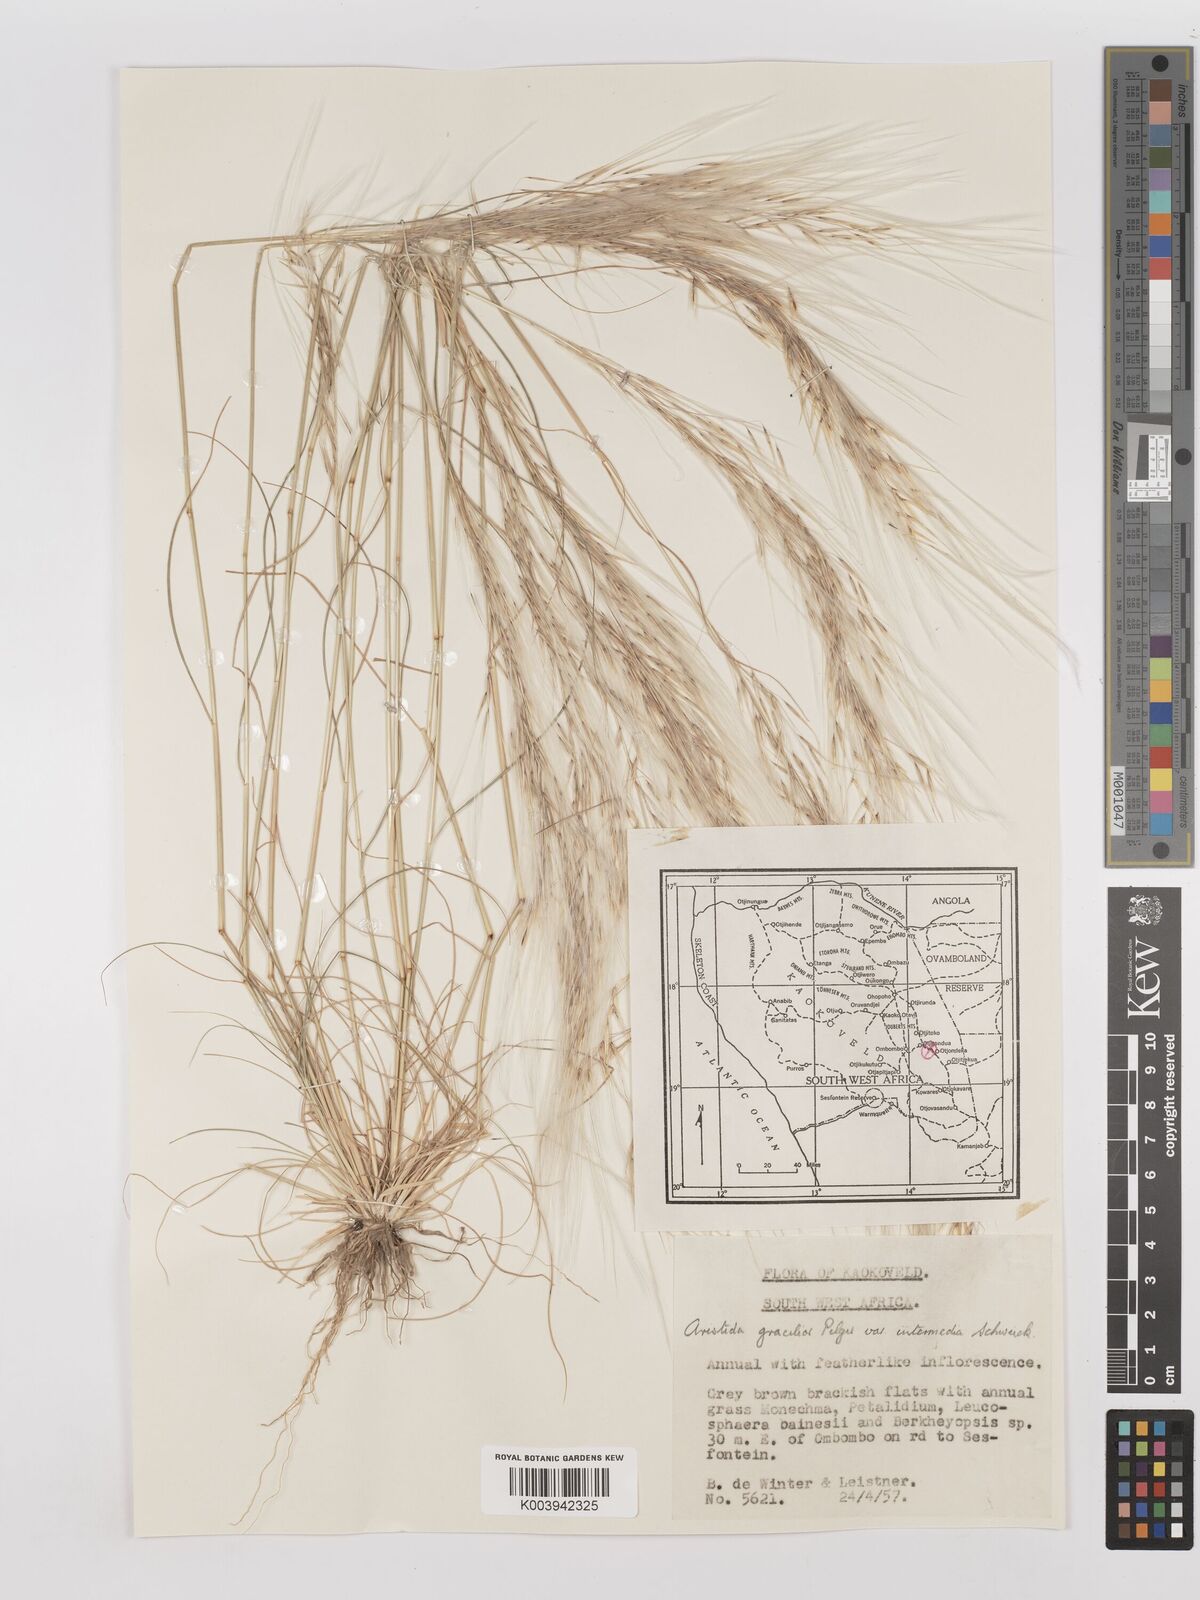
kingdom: Plantae
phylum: Tracheophyta
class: Liliopsida
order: Poales
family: Poaceae
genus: Stipagrostis
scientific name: Stipagrostis uniplumis
